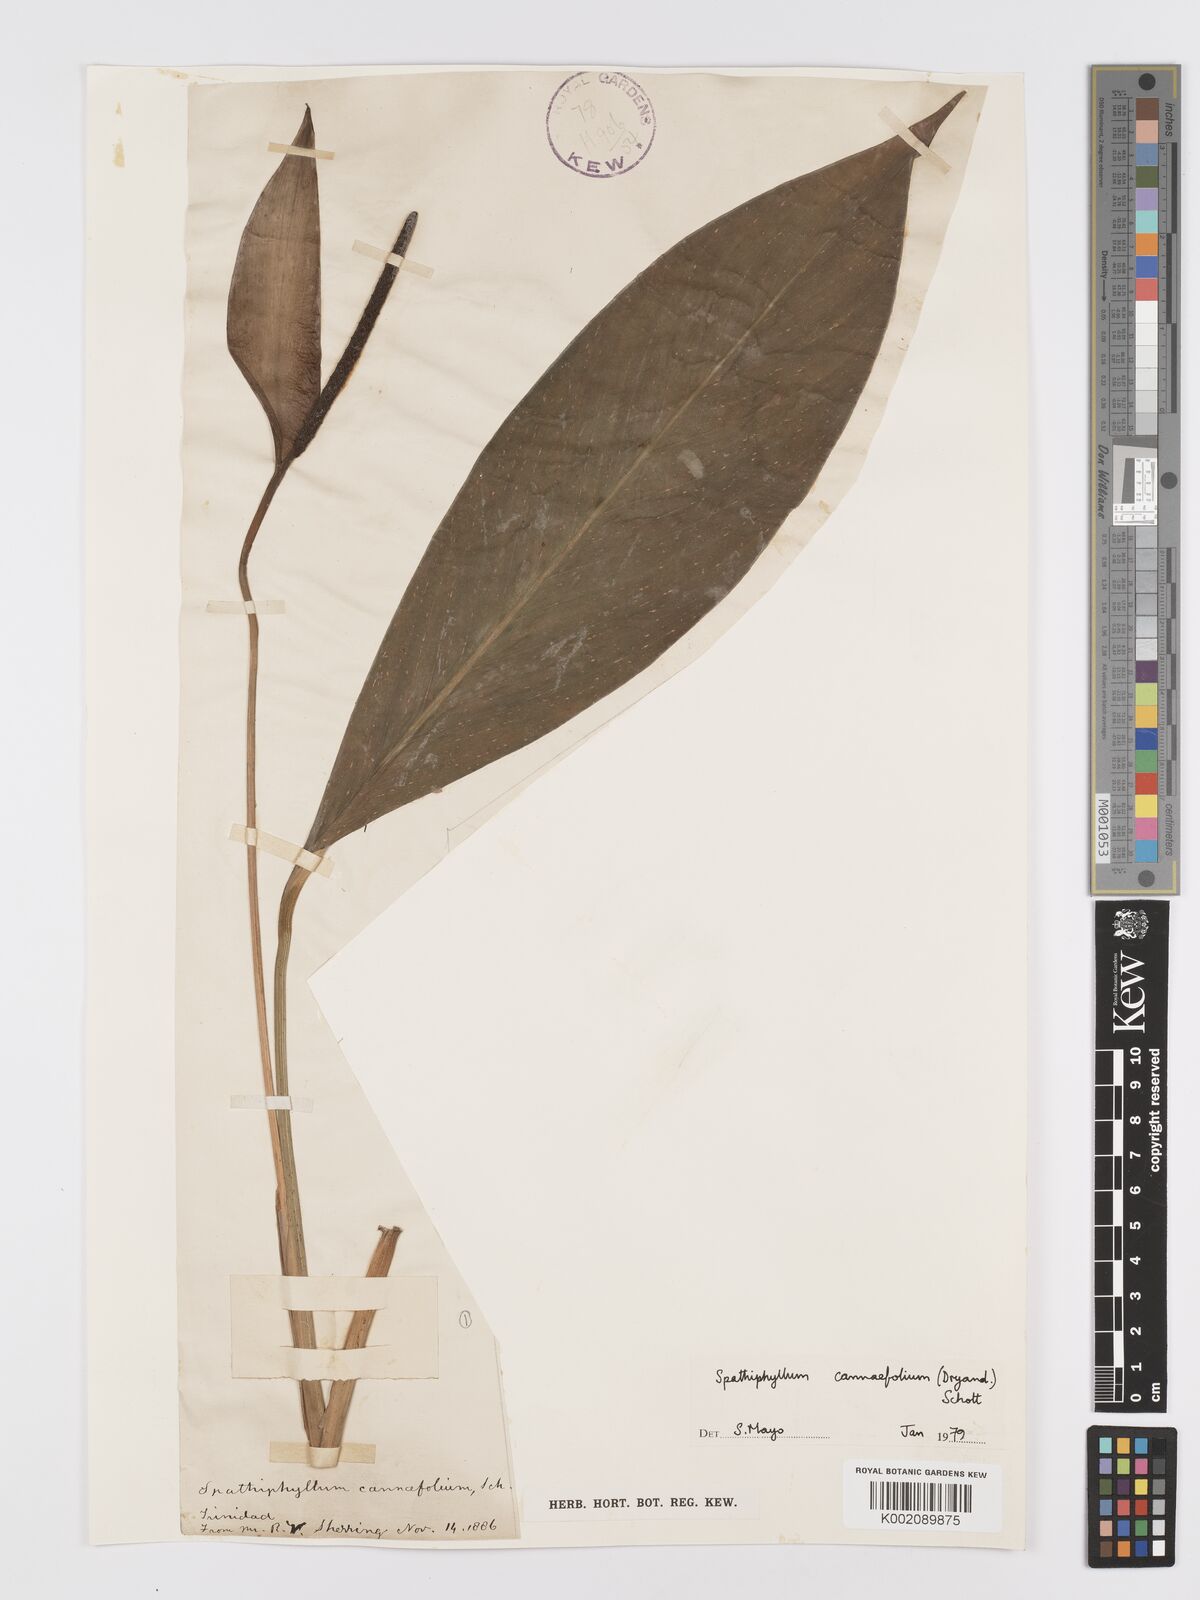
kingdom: Plantae
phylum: Tracheophyta
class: Liliopsida
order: Alismatales
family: Araceae
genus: Spathiphyllum
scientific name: Spathiphyllum cannifolium
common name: Spatheflower
